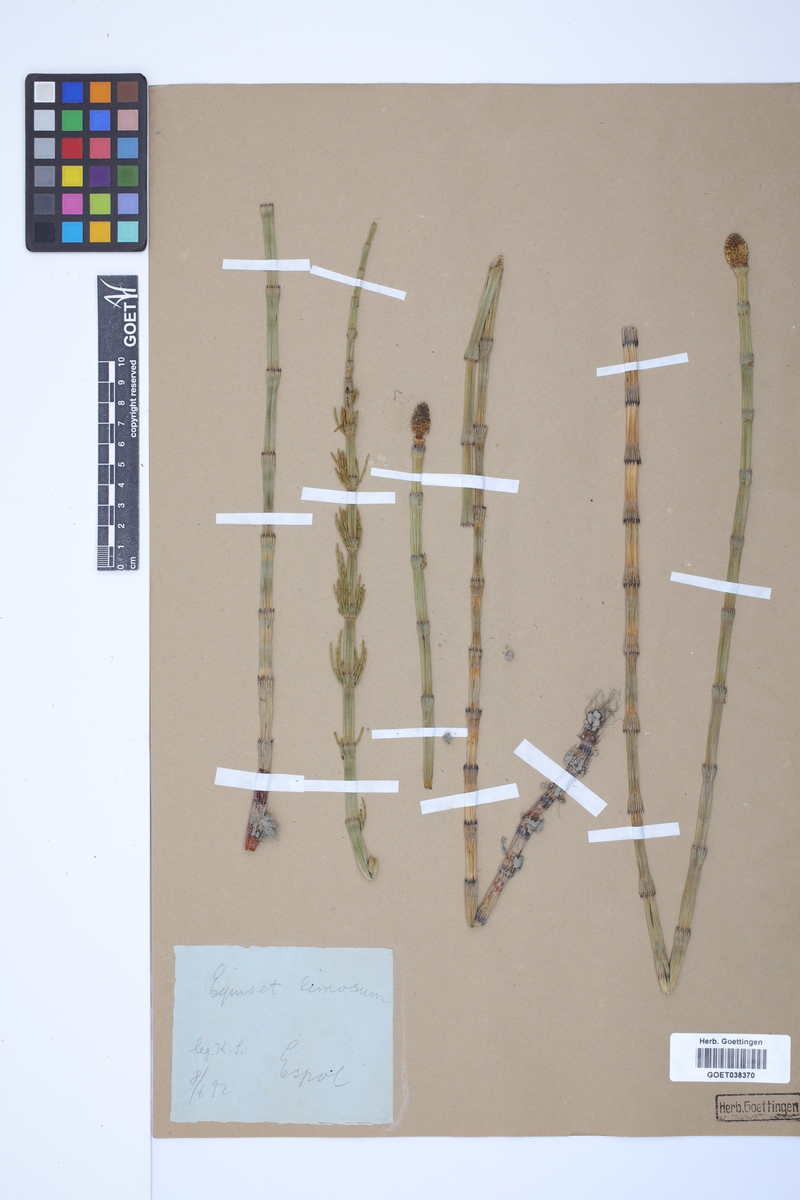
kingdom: Plantae
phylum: Tracheophyta
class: Polypodiopsida
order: Equisetales
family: Equisetaceae
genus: Equisetum
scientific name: Equisetum fluviatile
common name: Water horsetail
